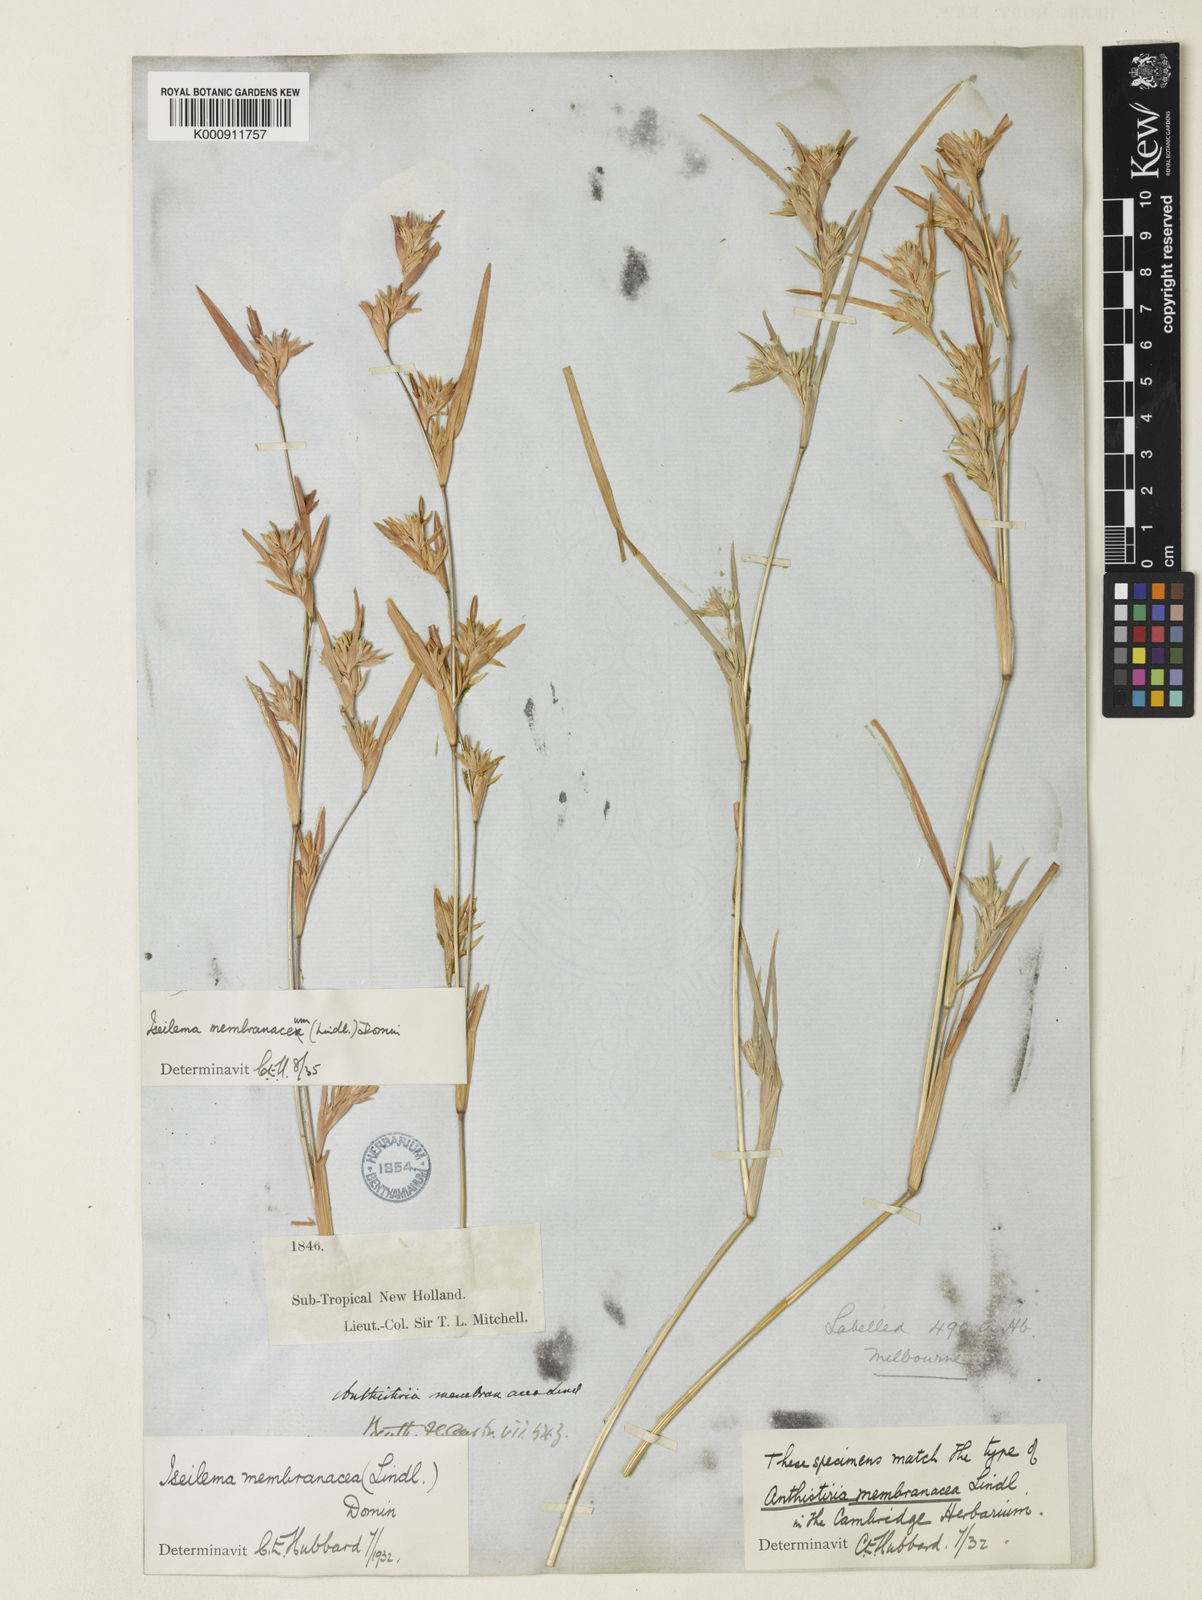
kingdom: Plantae
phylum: Tracheophyta
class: Liliopsida
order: Poales
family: Poaceae
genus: Iseilema
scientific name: Iseilema membranaceum
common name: Small flinders grass
